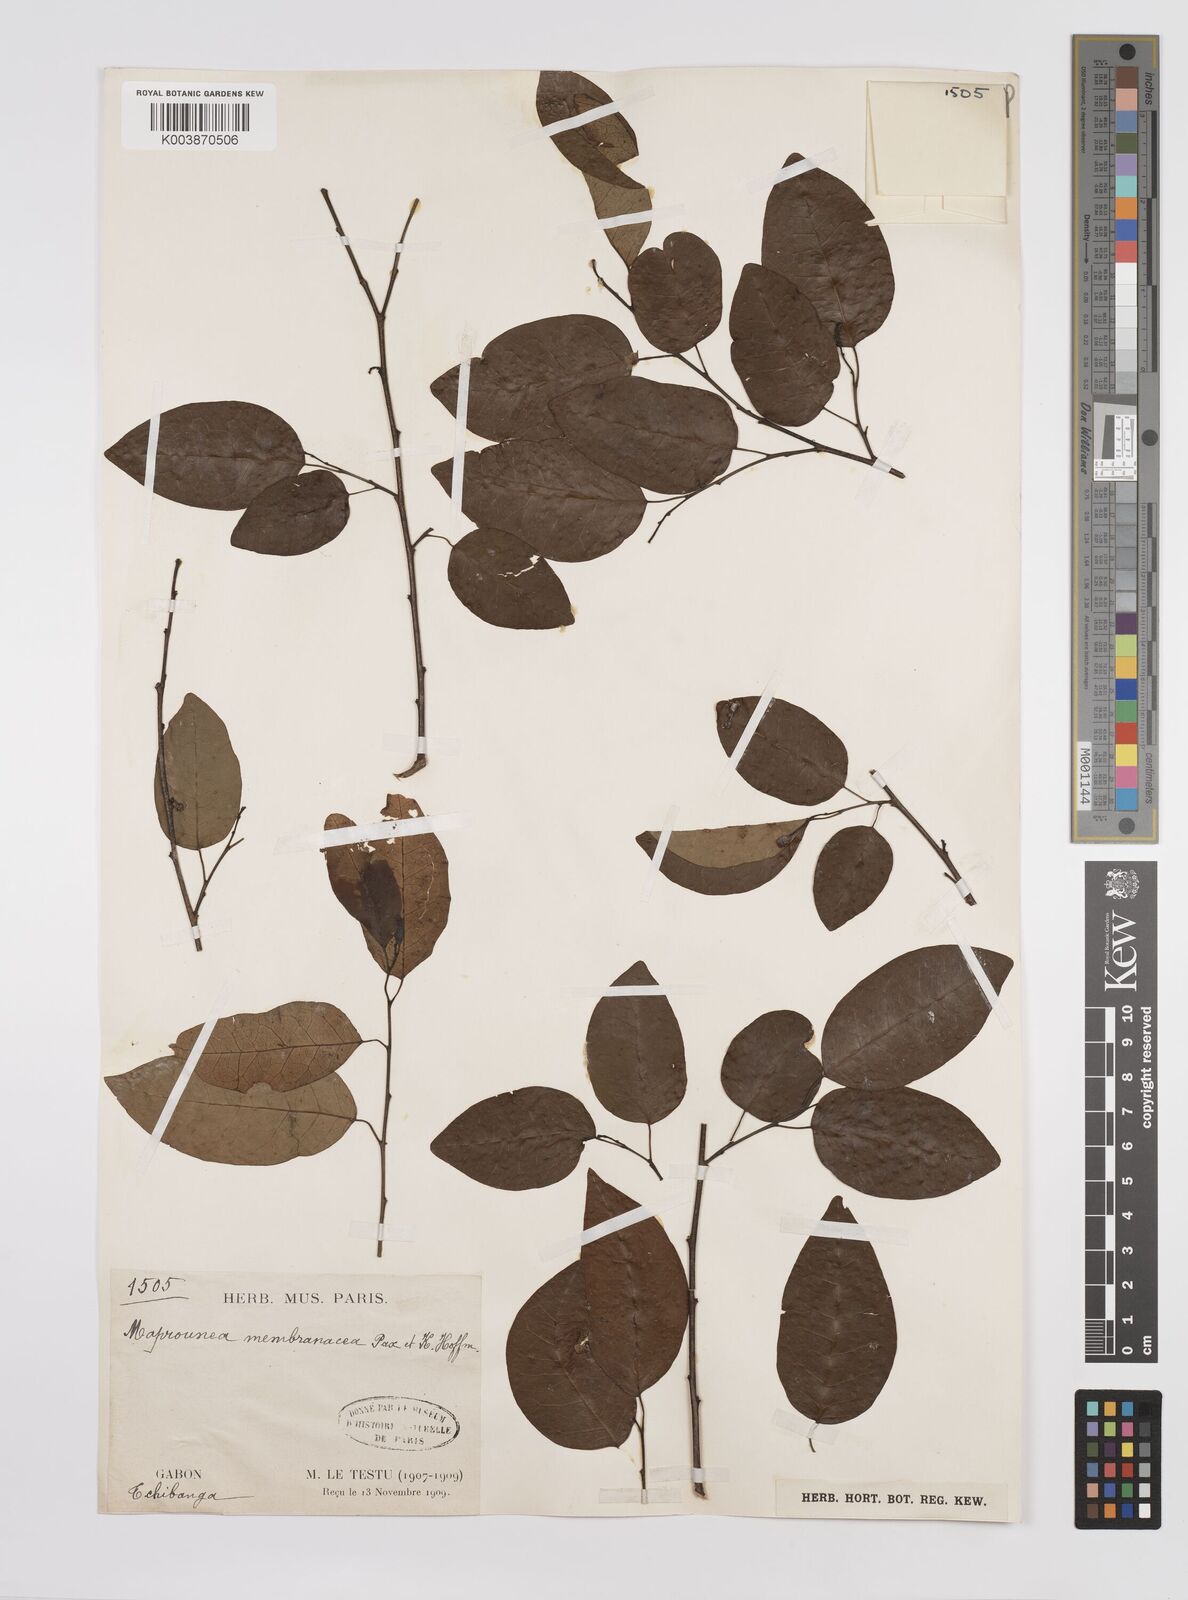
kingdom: Plantae
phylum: Tracheophyta
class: Magnoliopsida
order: Malpighiales
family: Euphorbiaceae
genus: Maprounea
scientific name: Maprounea membranacea
